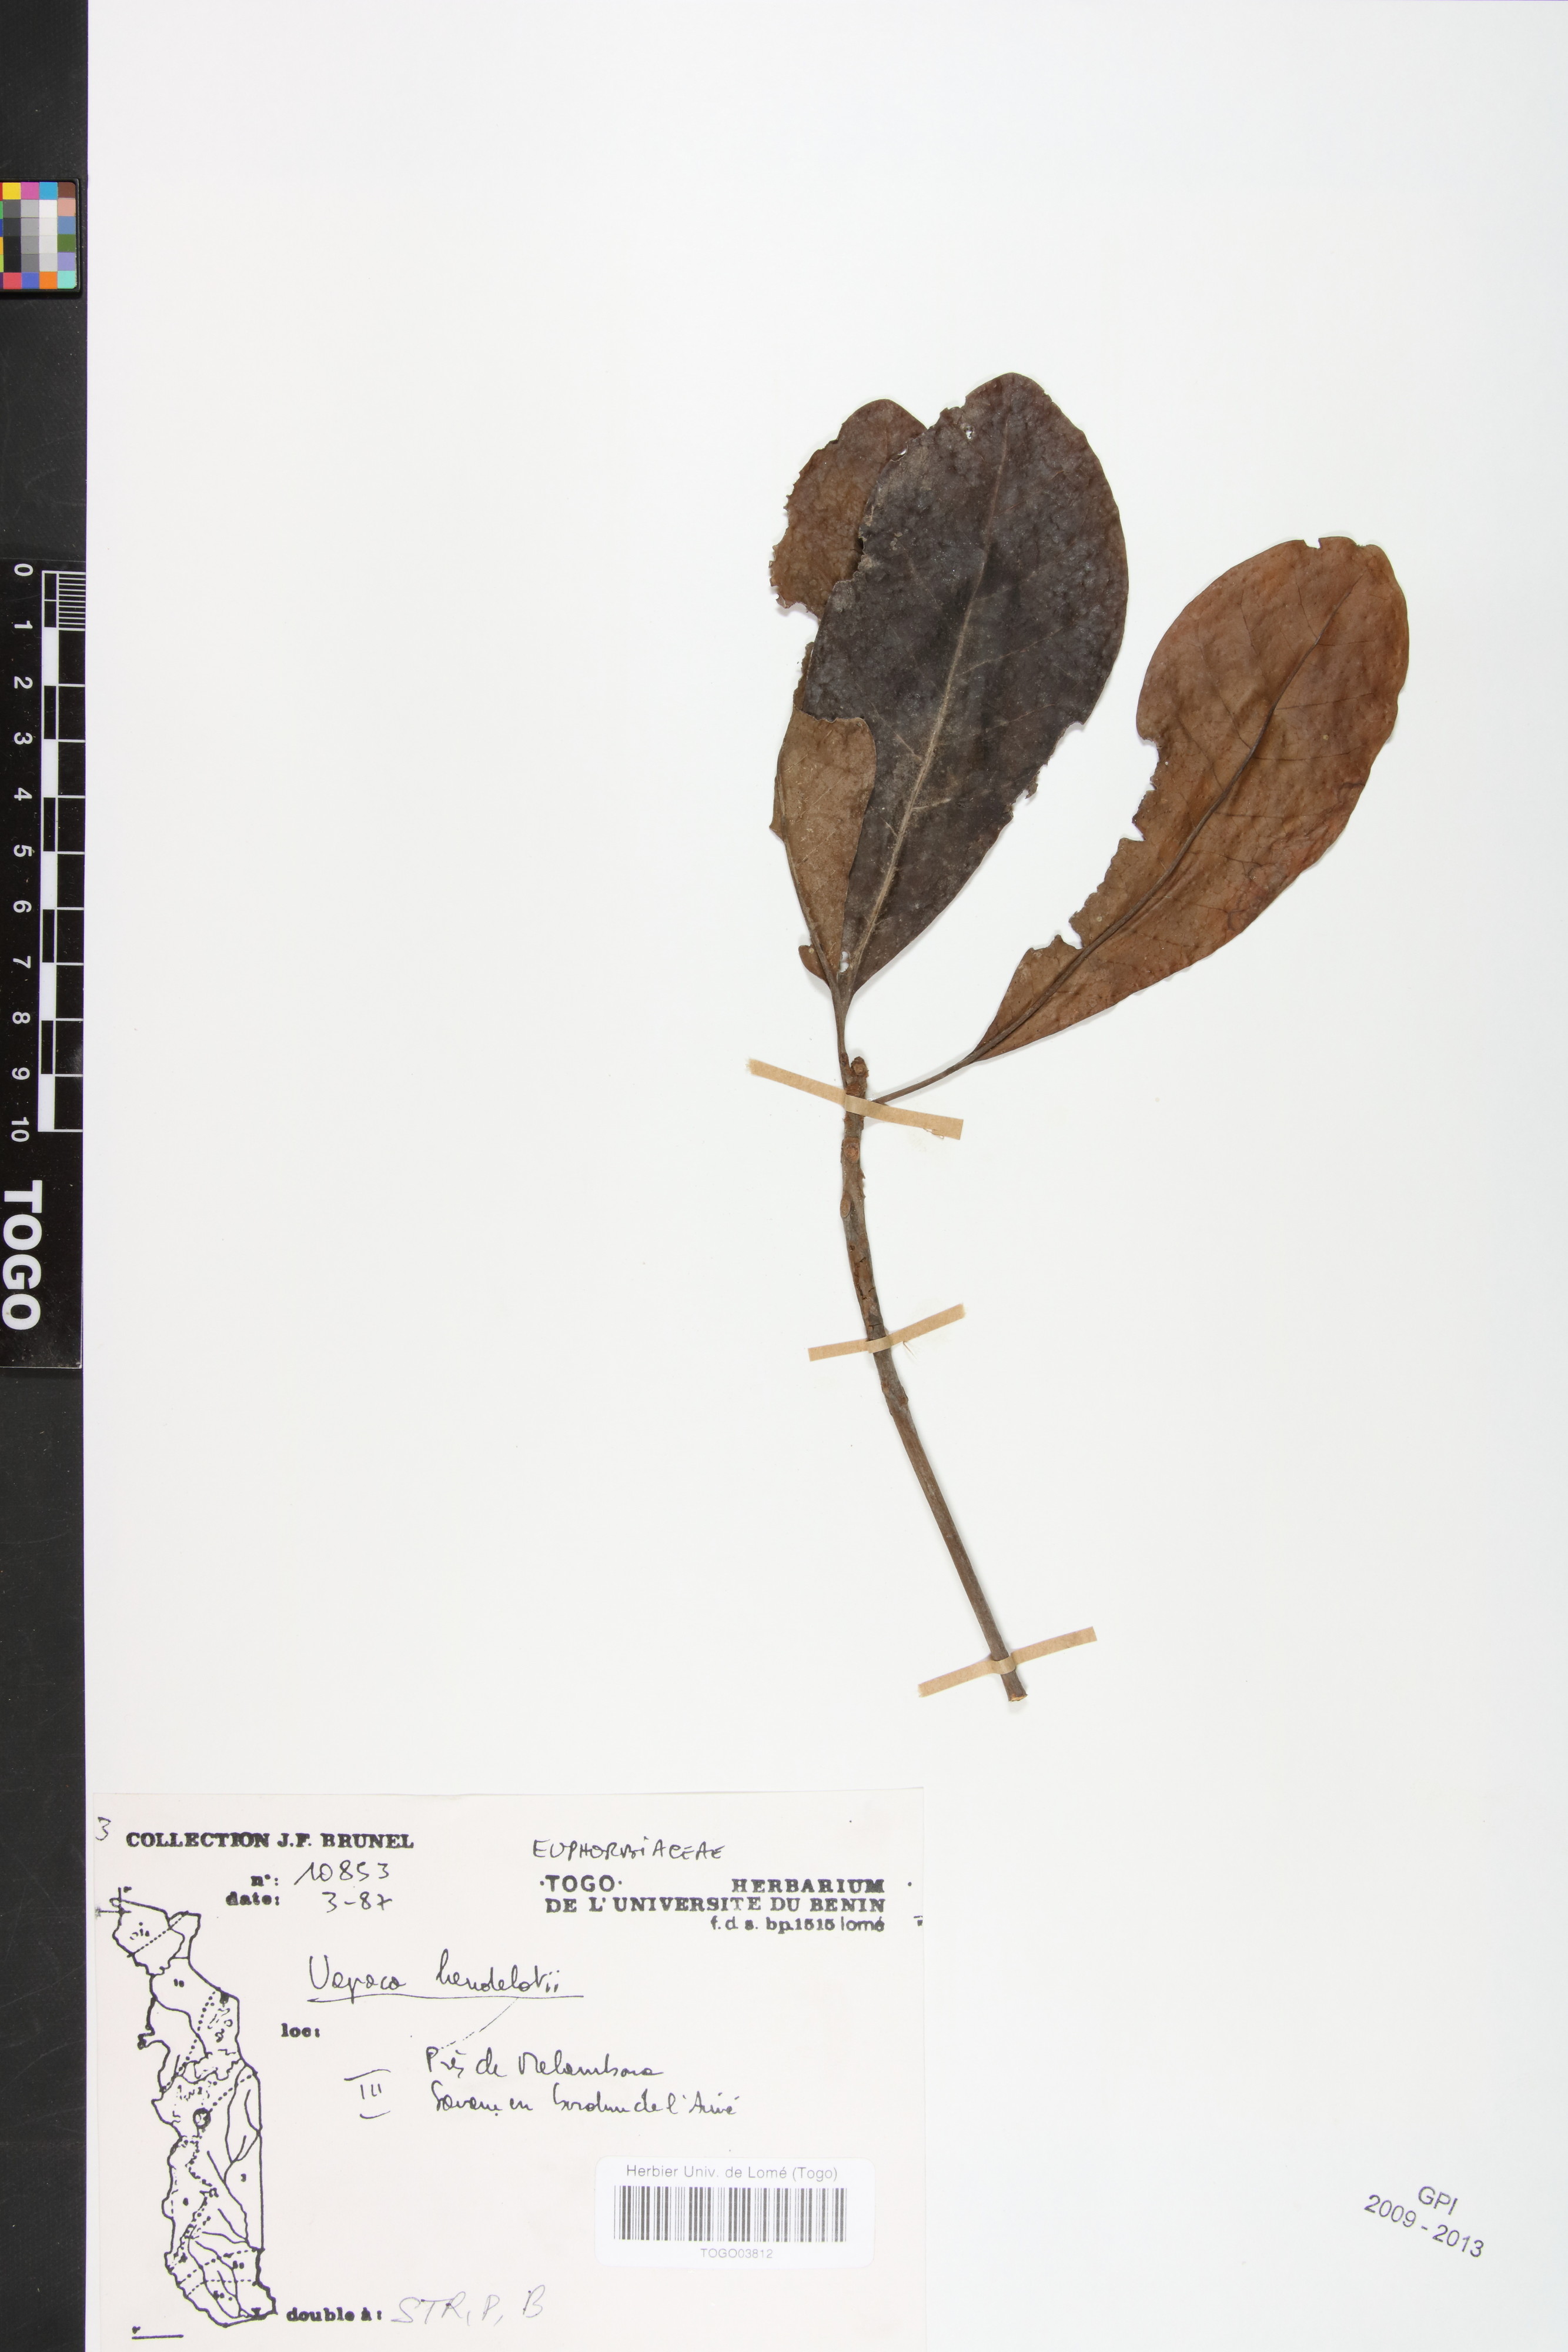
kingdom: Plantae
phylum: Tracheophyta
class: Magnoliopsida
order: Malpighiales
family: Phyllanthaceae
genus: Uapaca
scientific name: Uapaca heudelotii
